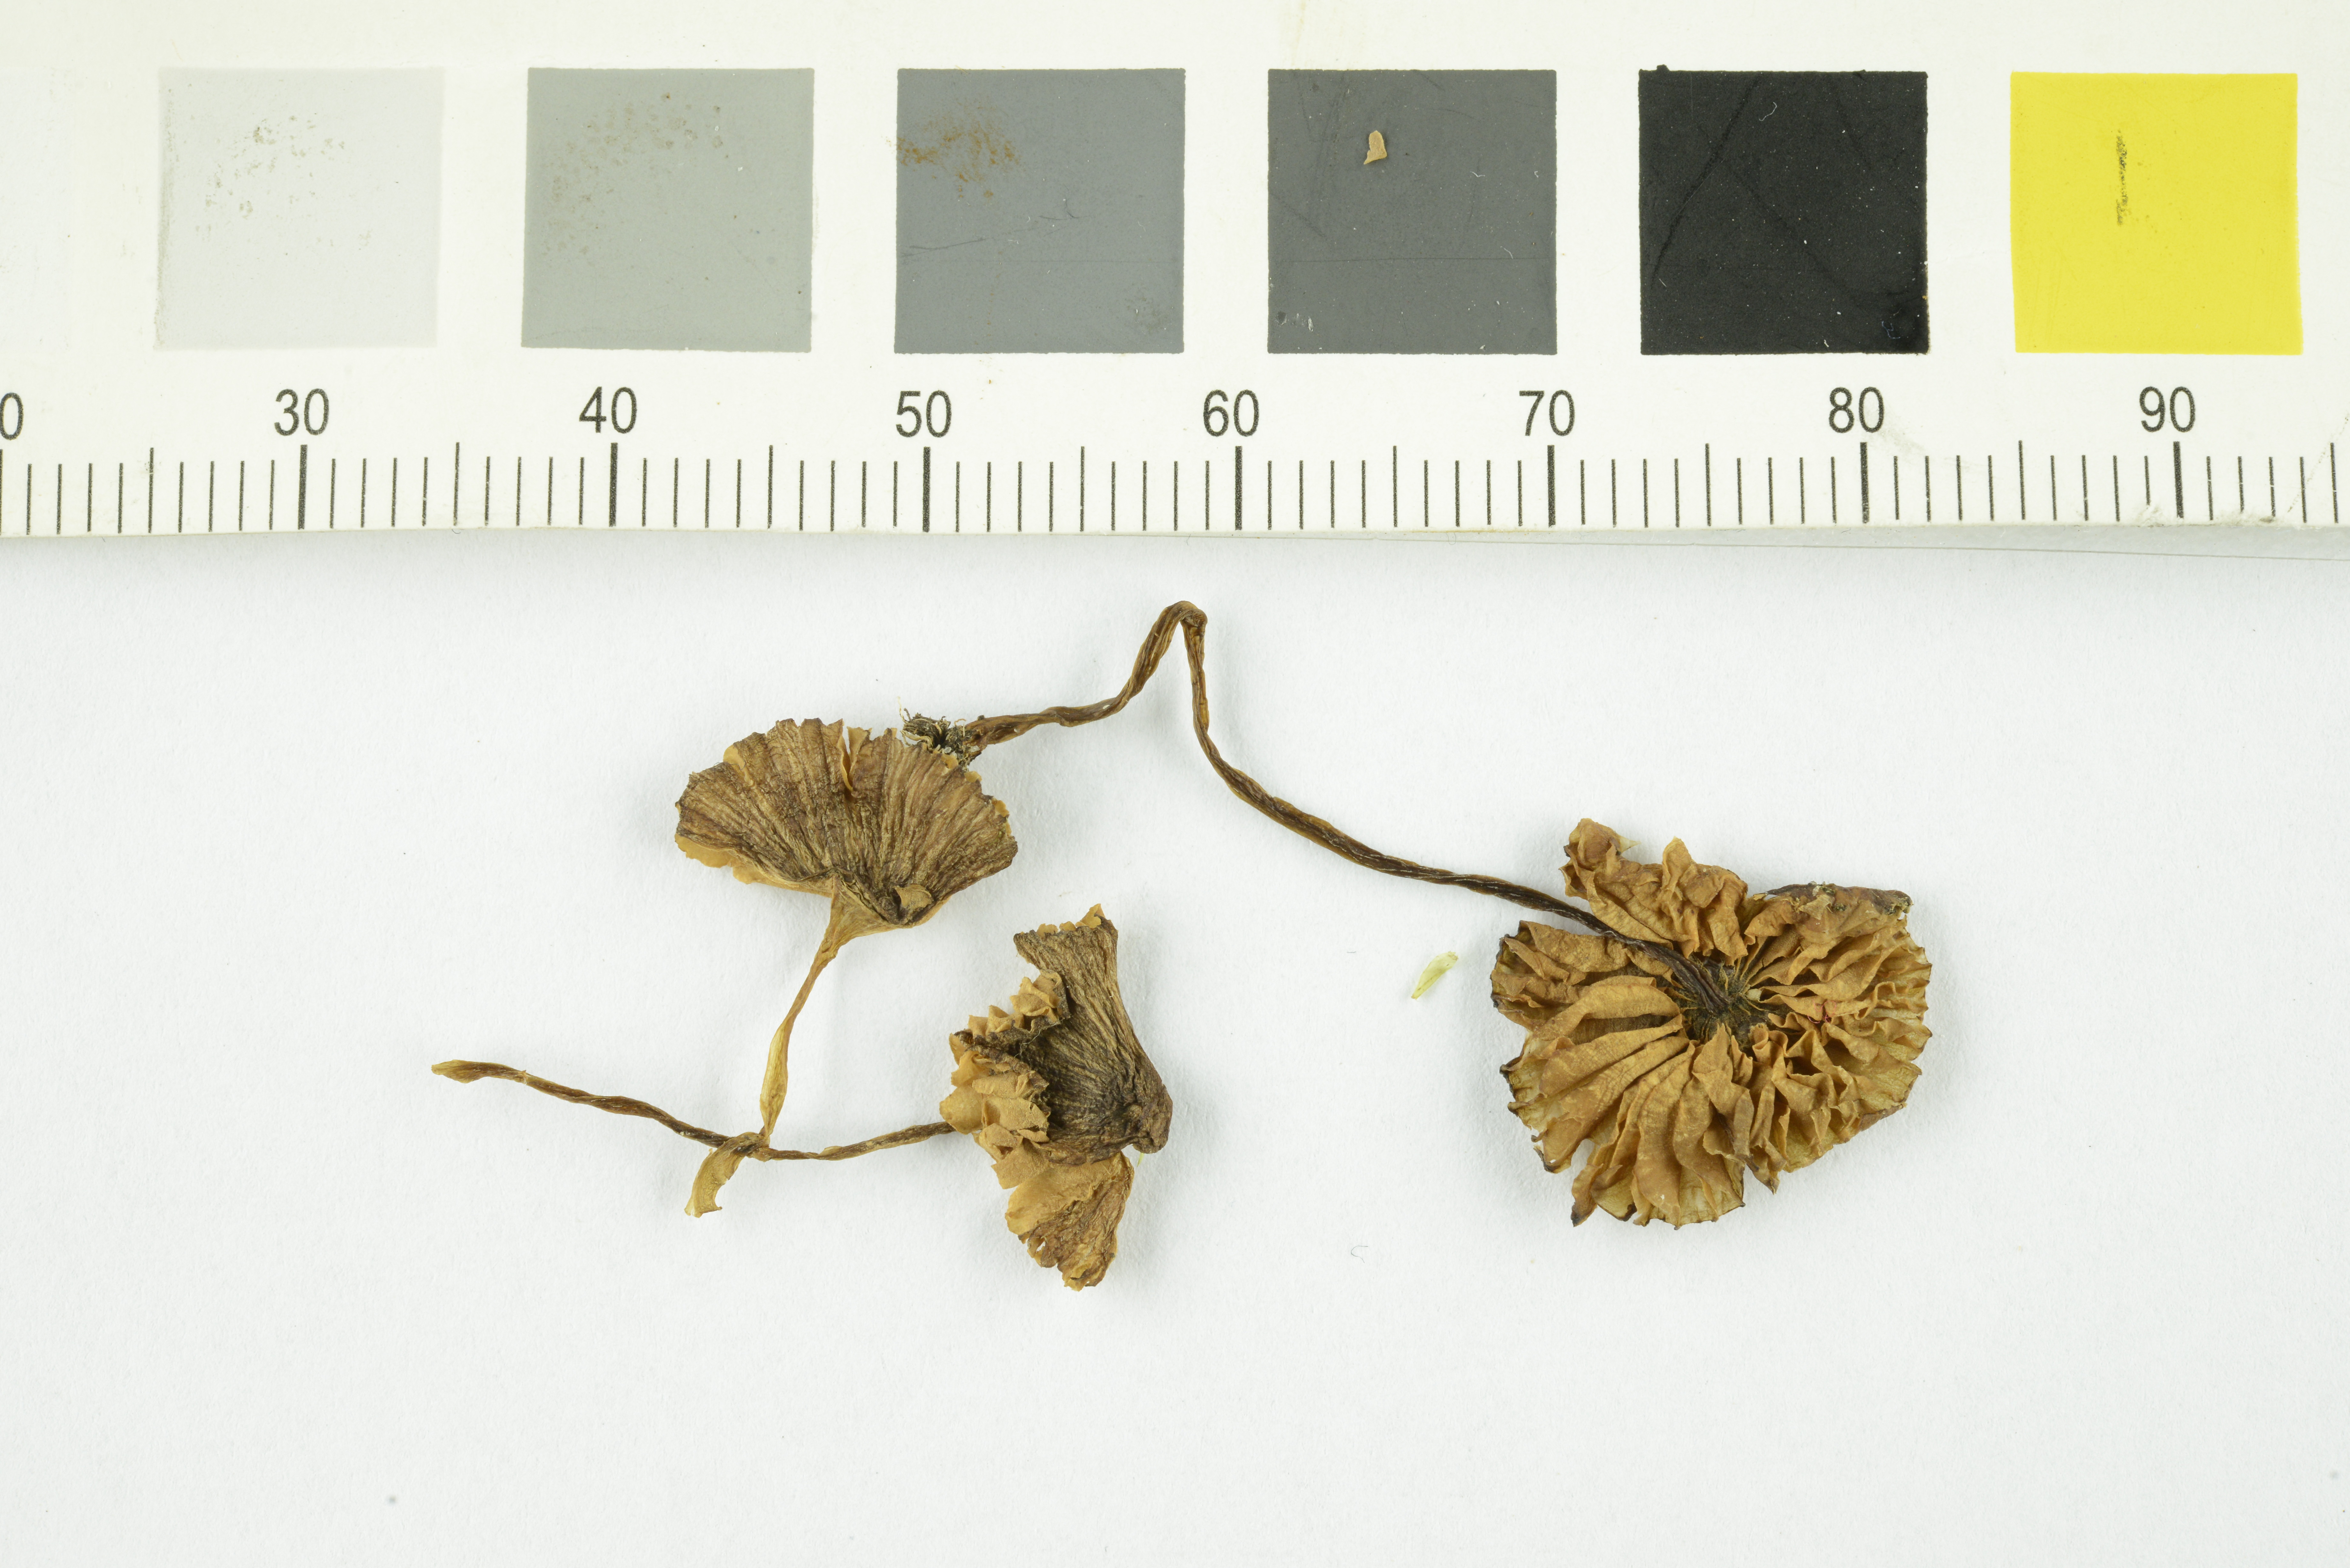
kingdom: Fungi
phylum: Basidiomycota
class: Agaricomycetes
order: Agaricales
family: Entolomataceae
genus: Entoloma
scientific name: Entoloma rhombisporum
